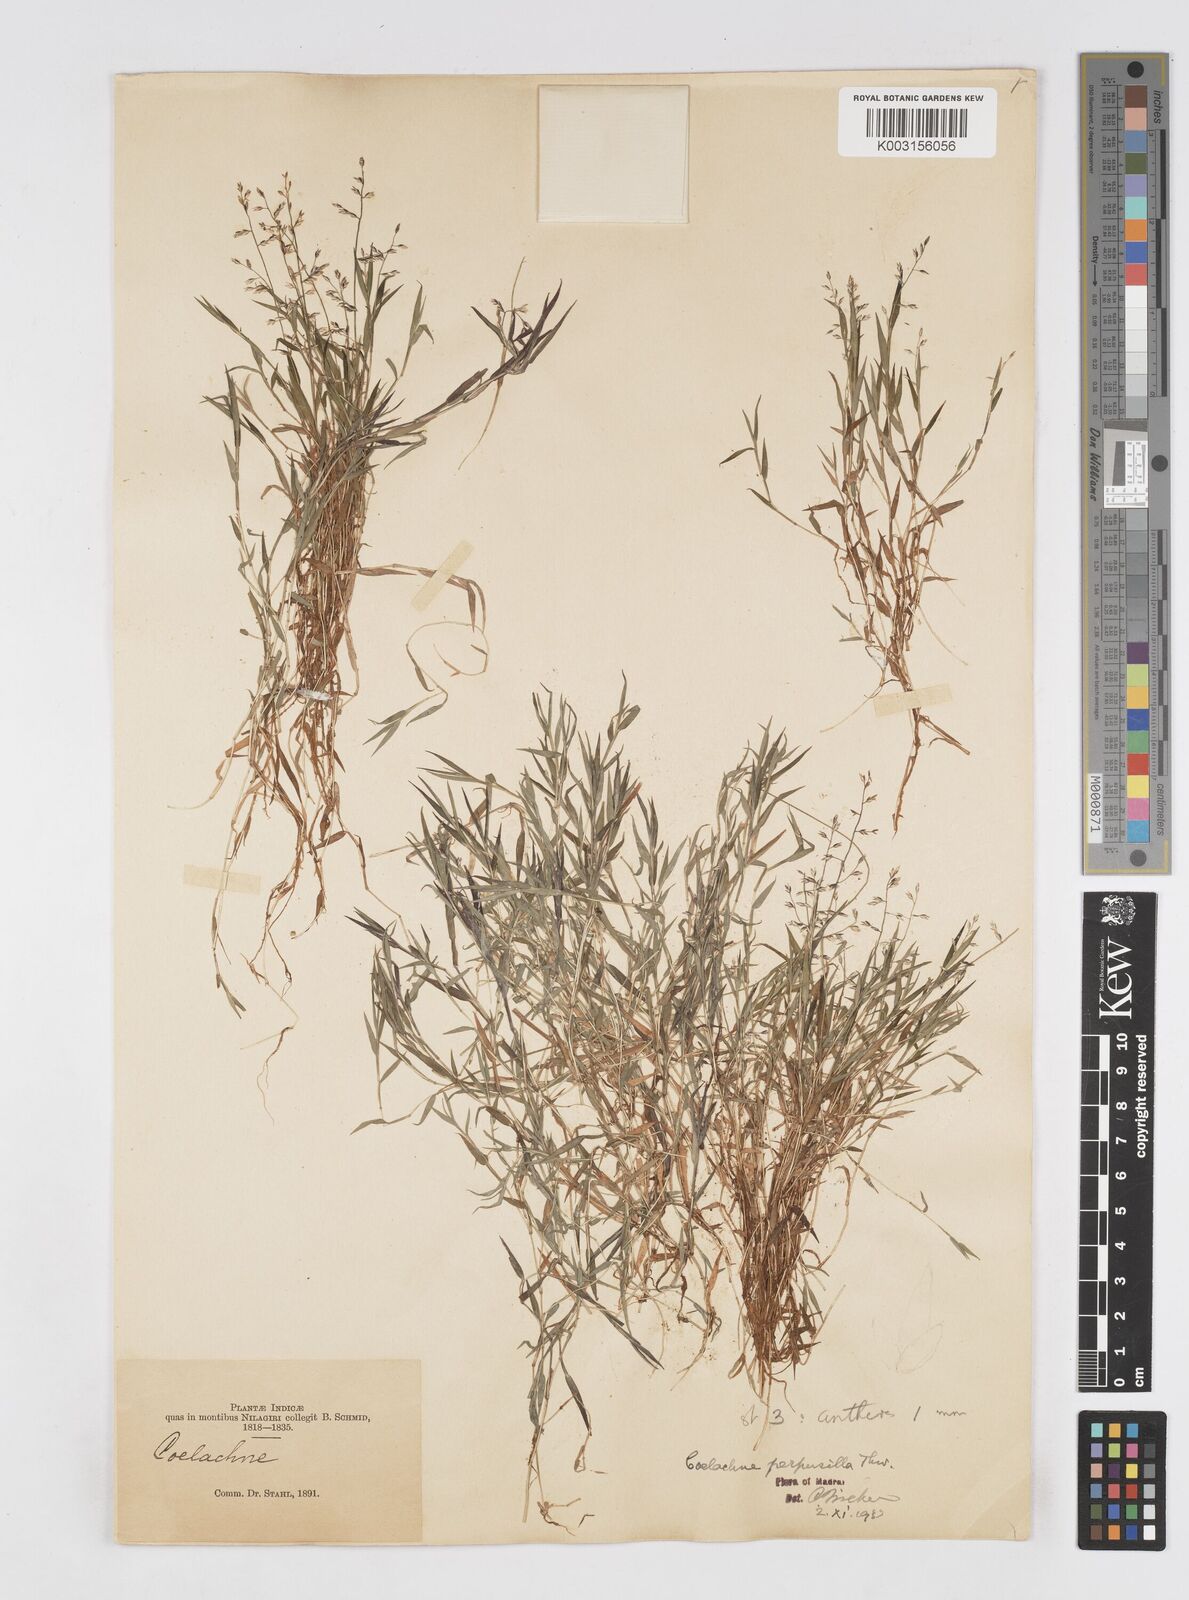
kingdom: Plantae
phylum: Tracheophyta
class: Liliopsida
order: Poales
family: Poaceae
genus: Coelachne
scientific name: Coelachne perpusilla
